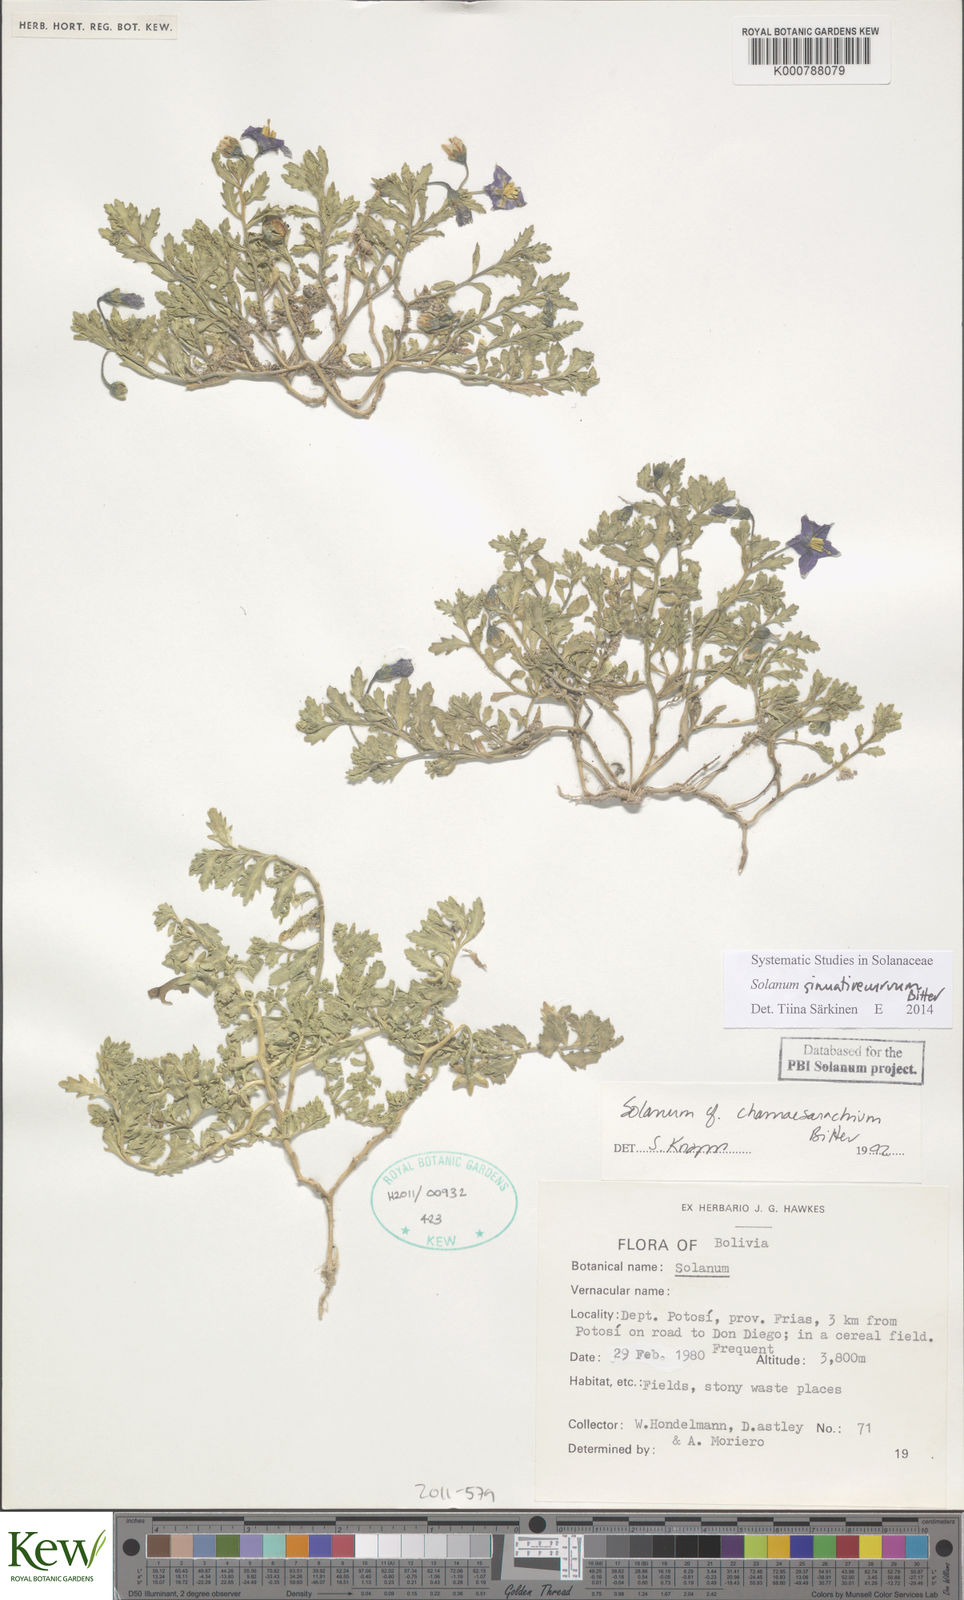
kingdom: Plantae
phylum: Tracheophyta
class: Magnoliopsida
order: Solanales
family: Solanaceae
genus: Solanum
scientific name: Solanum sinuatirecurvum
